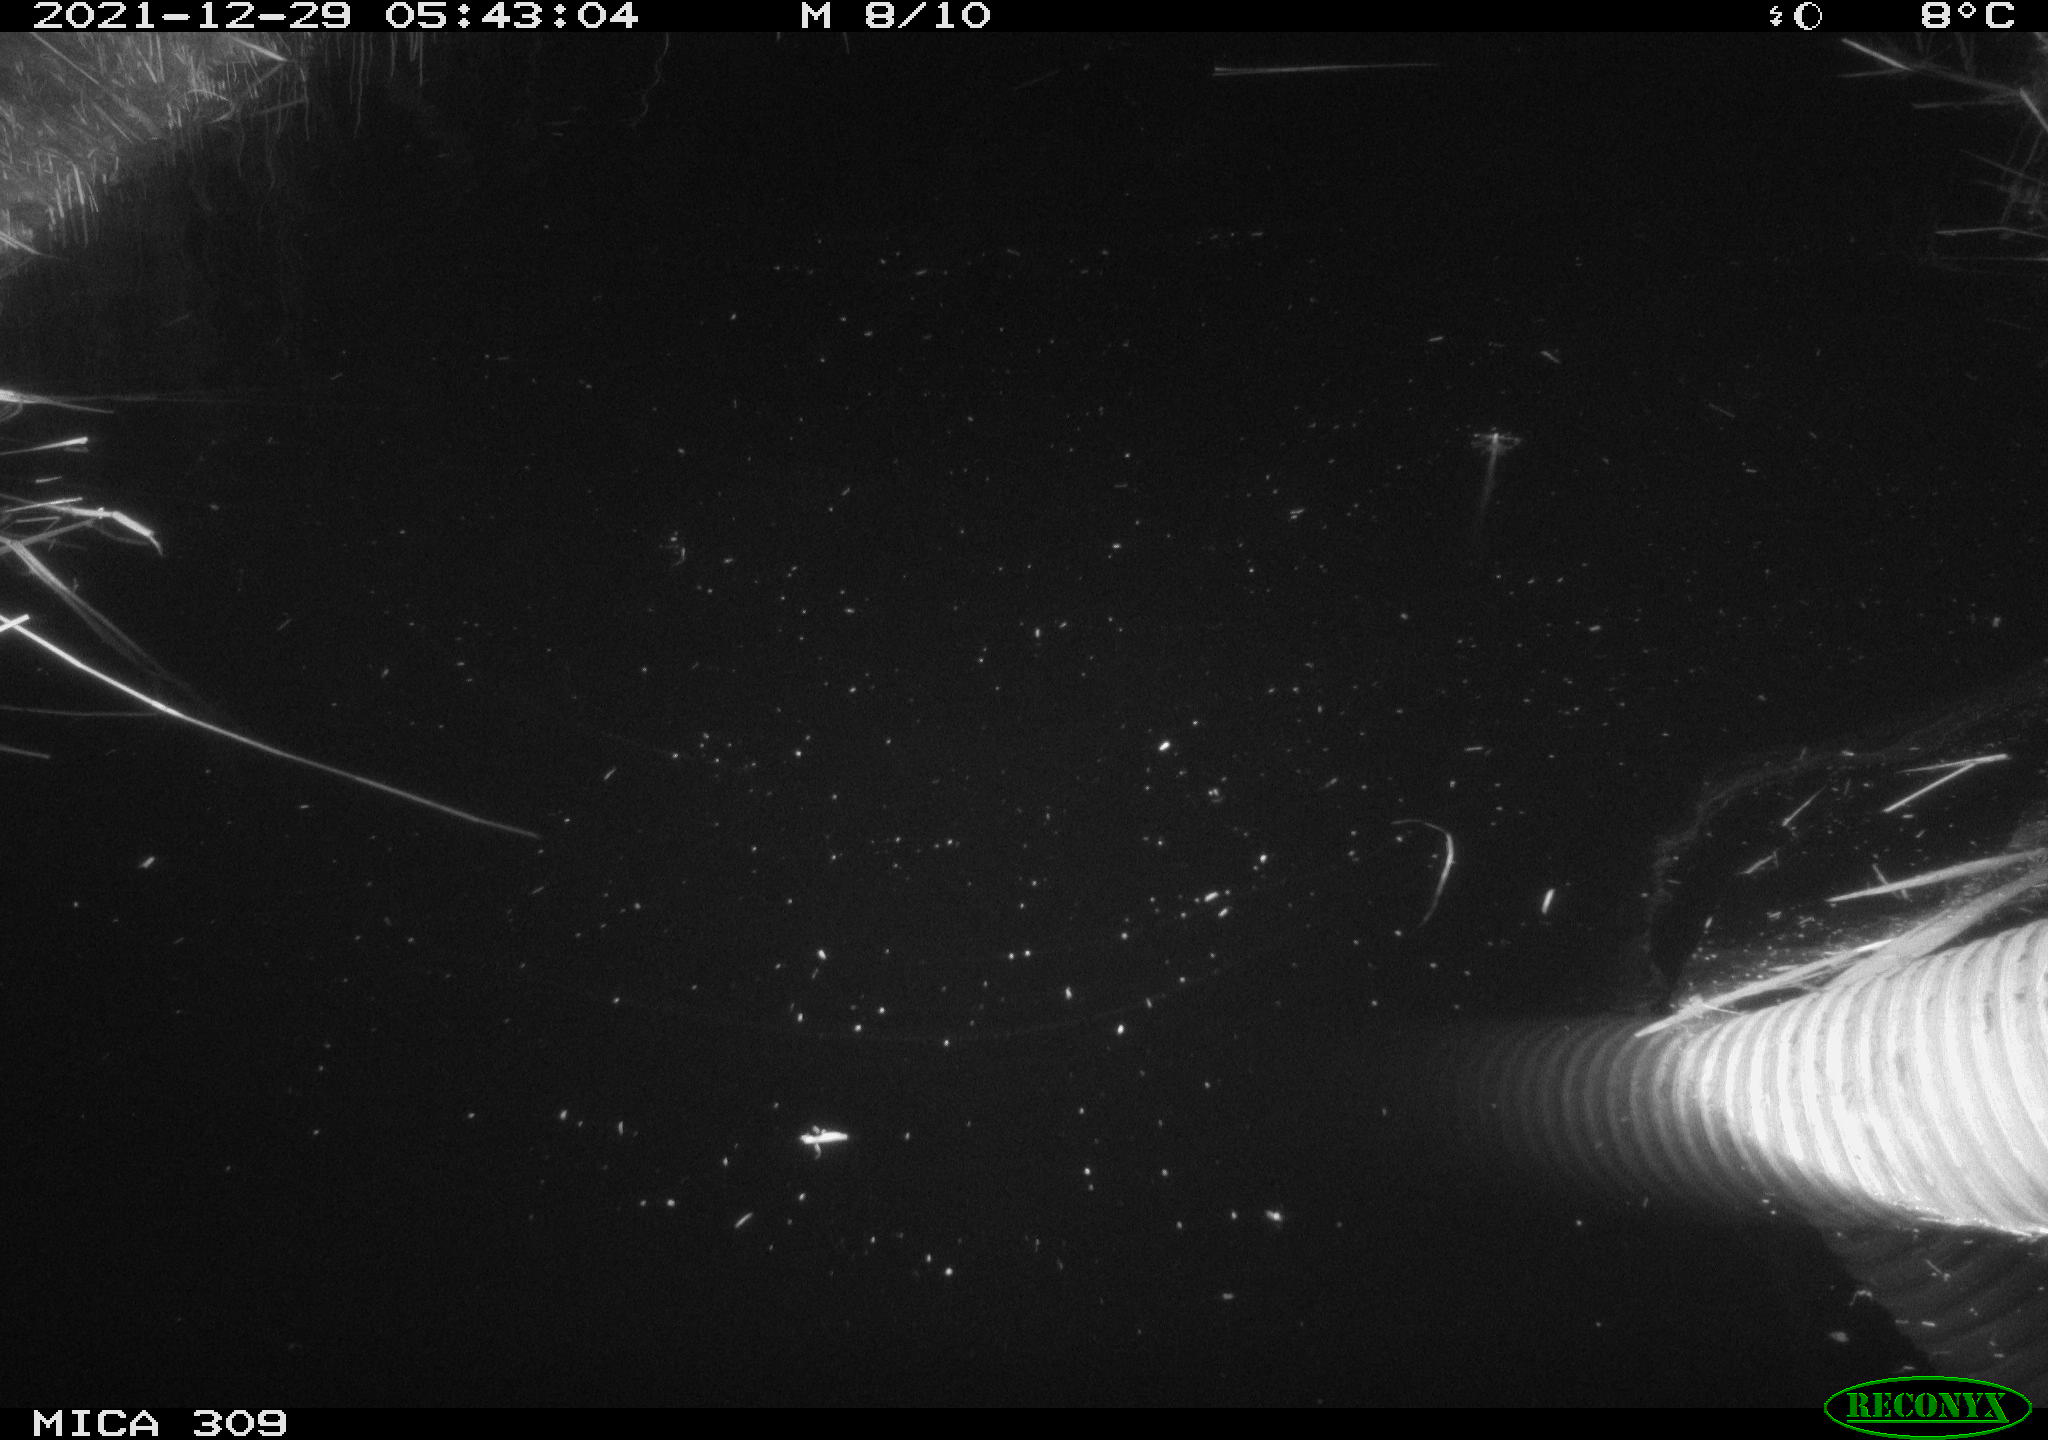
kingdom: Animalia
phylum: Chordata
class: Mammalia
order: Rodentia
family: Muridae
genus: Rattus
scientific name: Rattus norvegicus
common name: Brown rat
